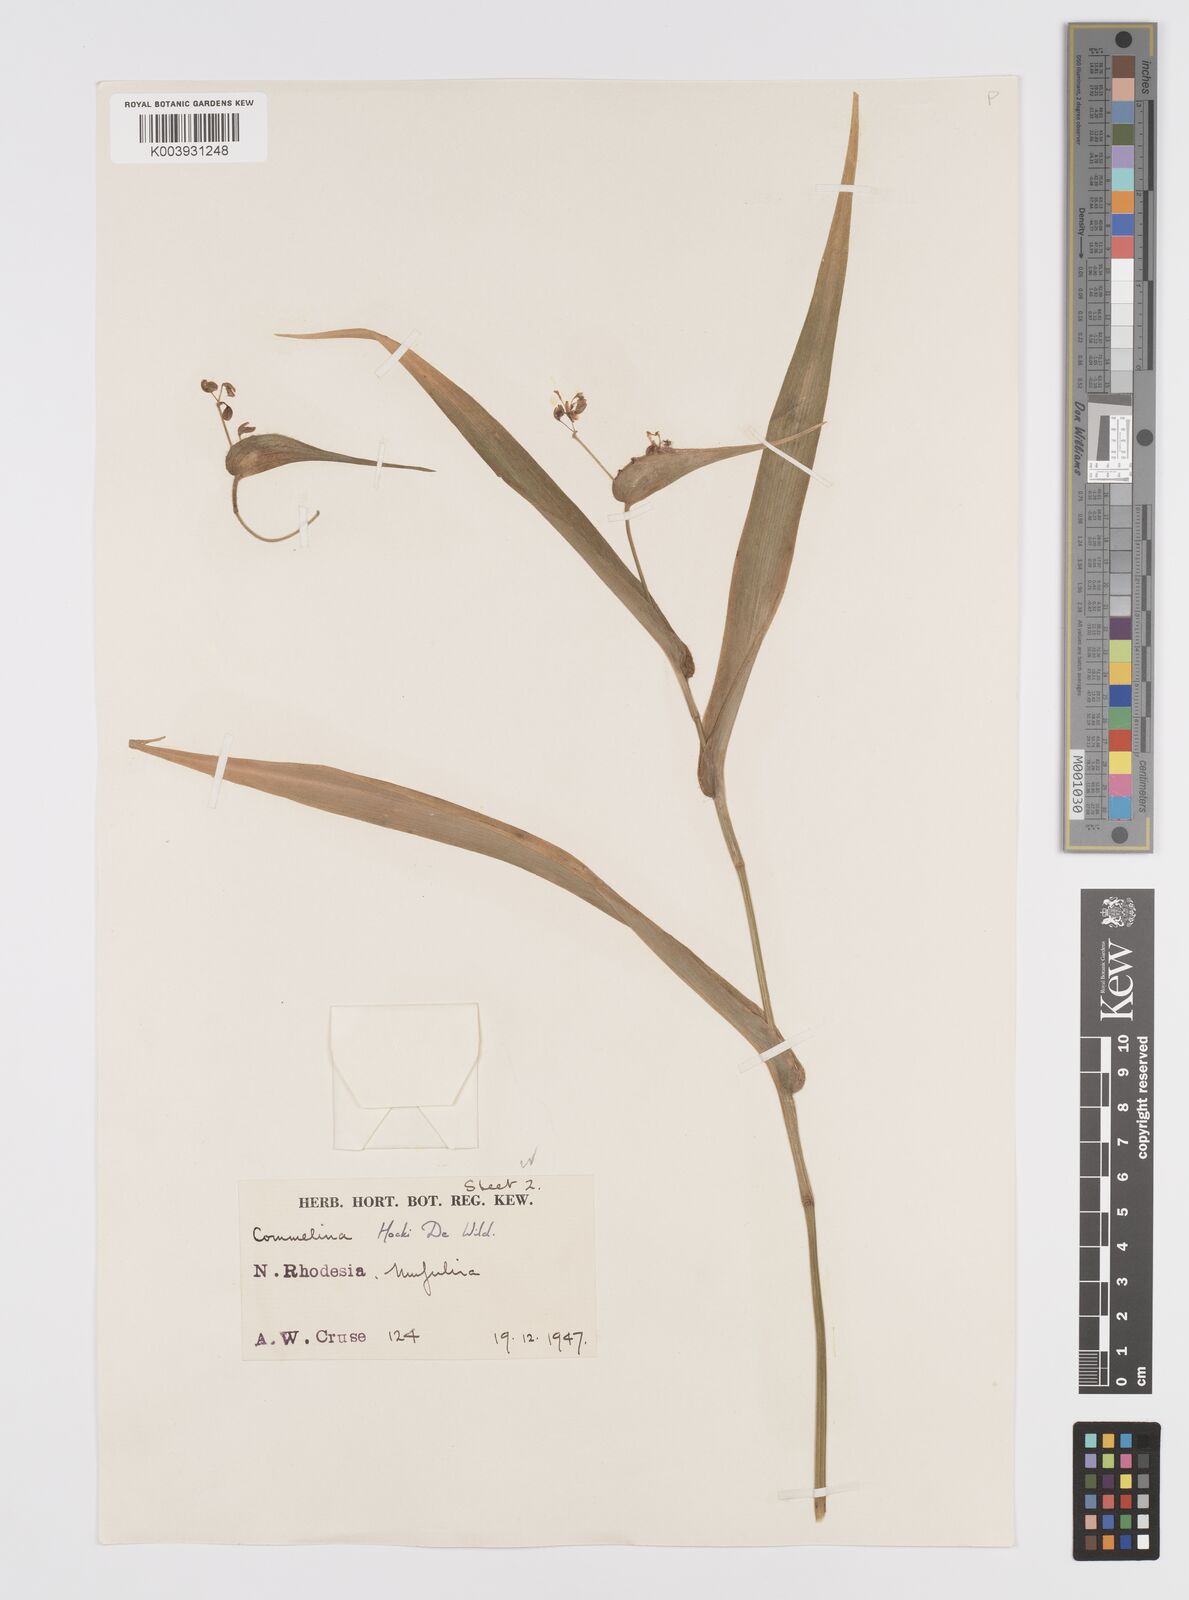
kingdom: Plantae
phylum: Tracheophyta
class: Liliopsida
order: Commelinales
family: Commelinaceae
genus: Commelina
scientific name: Commelina hockii
